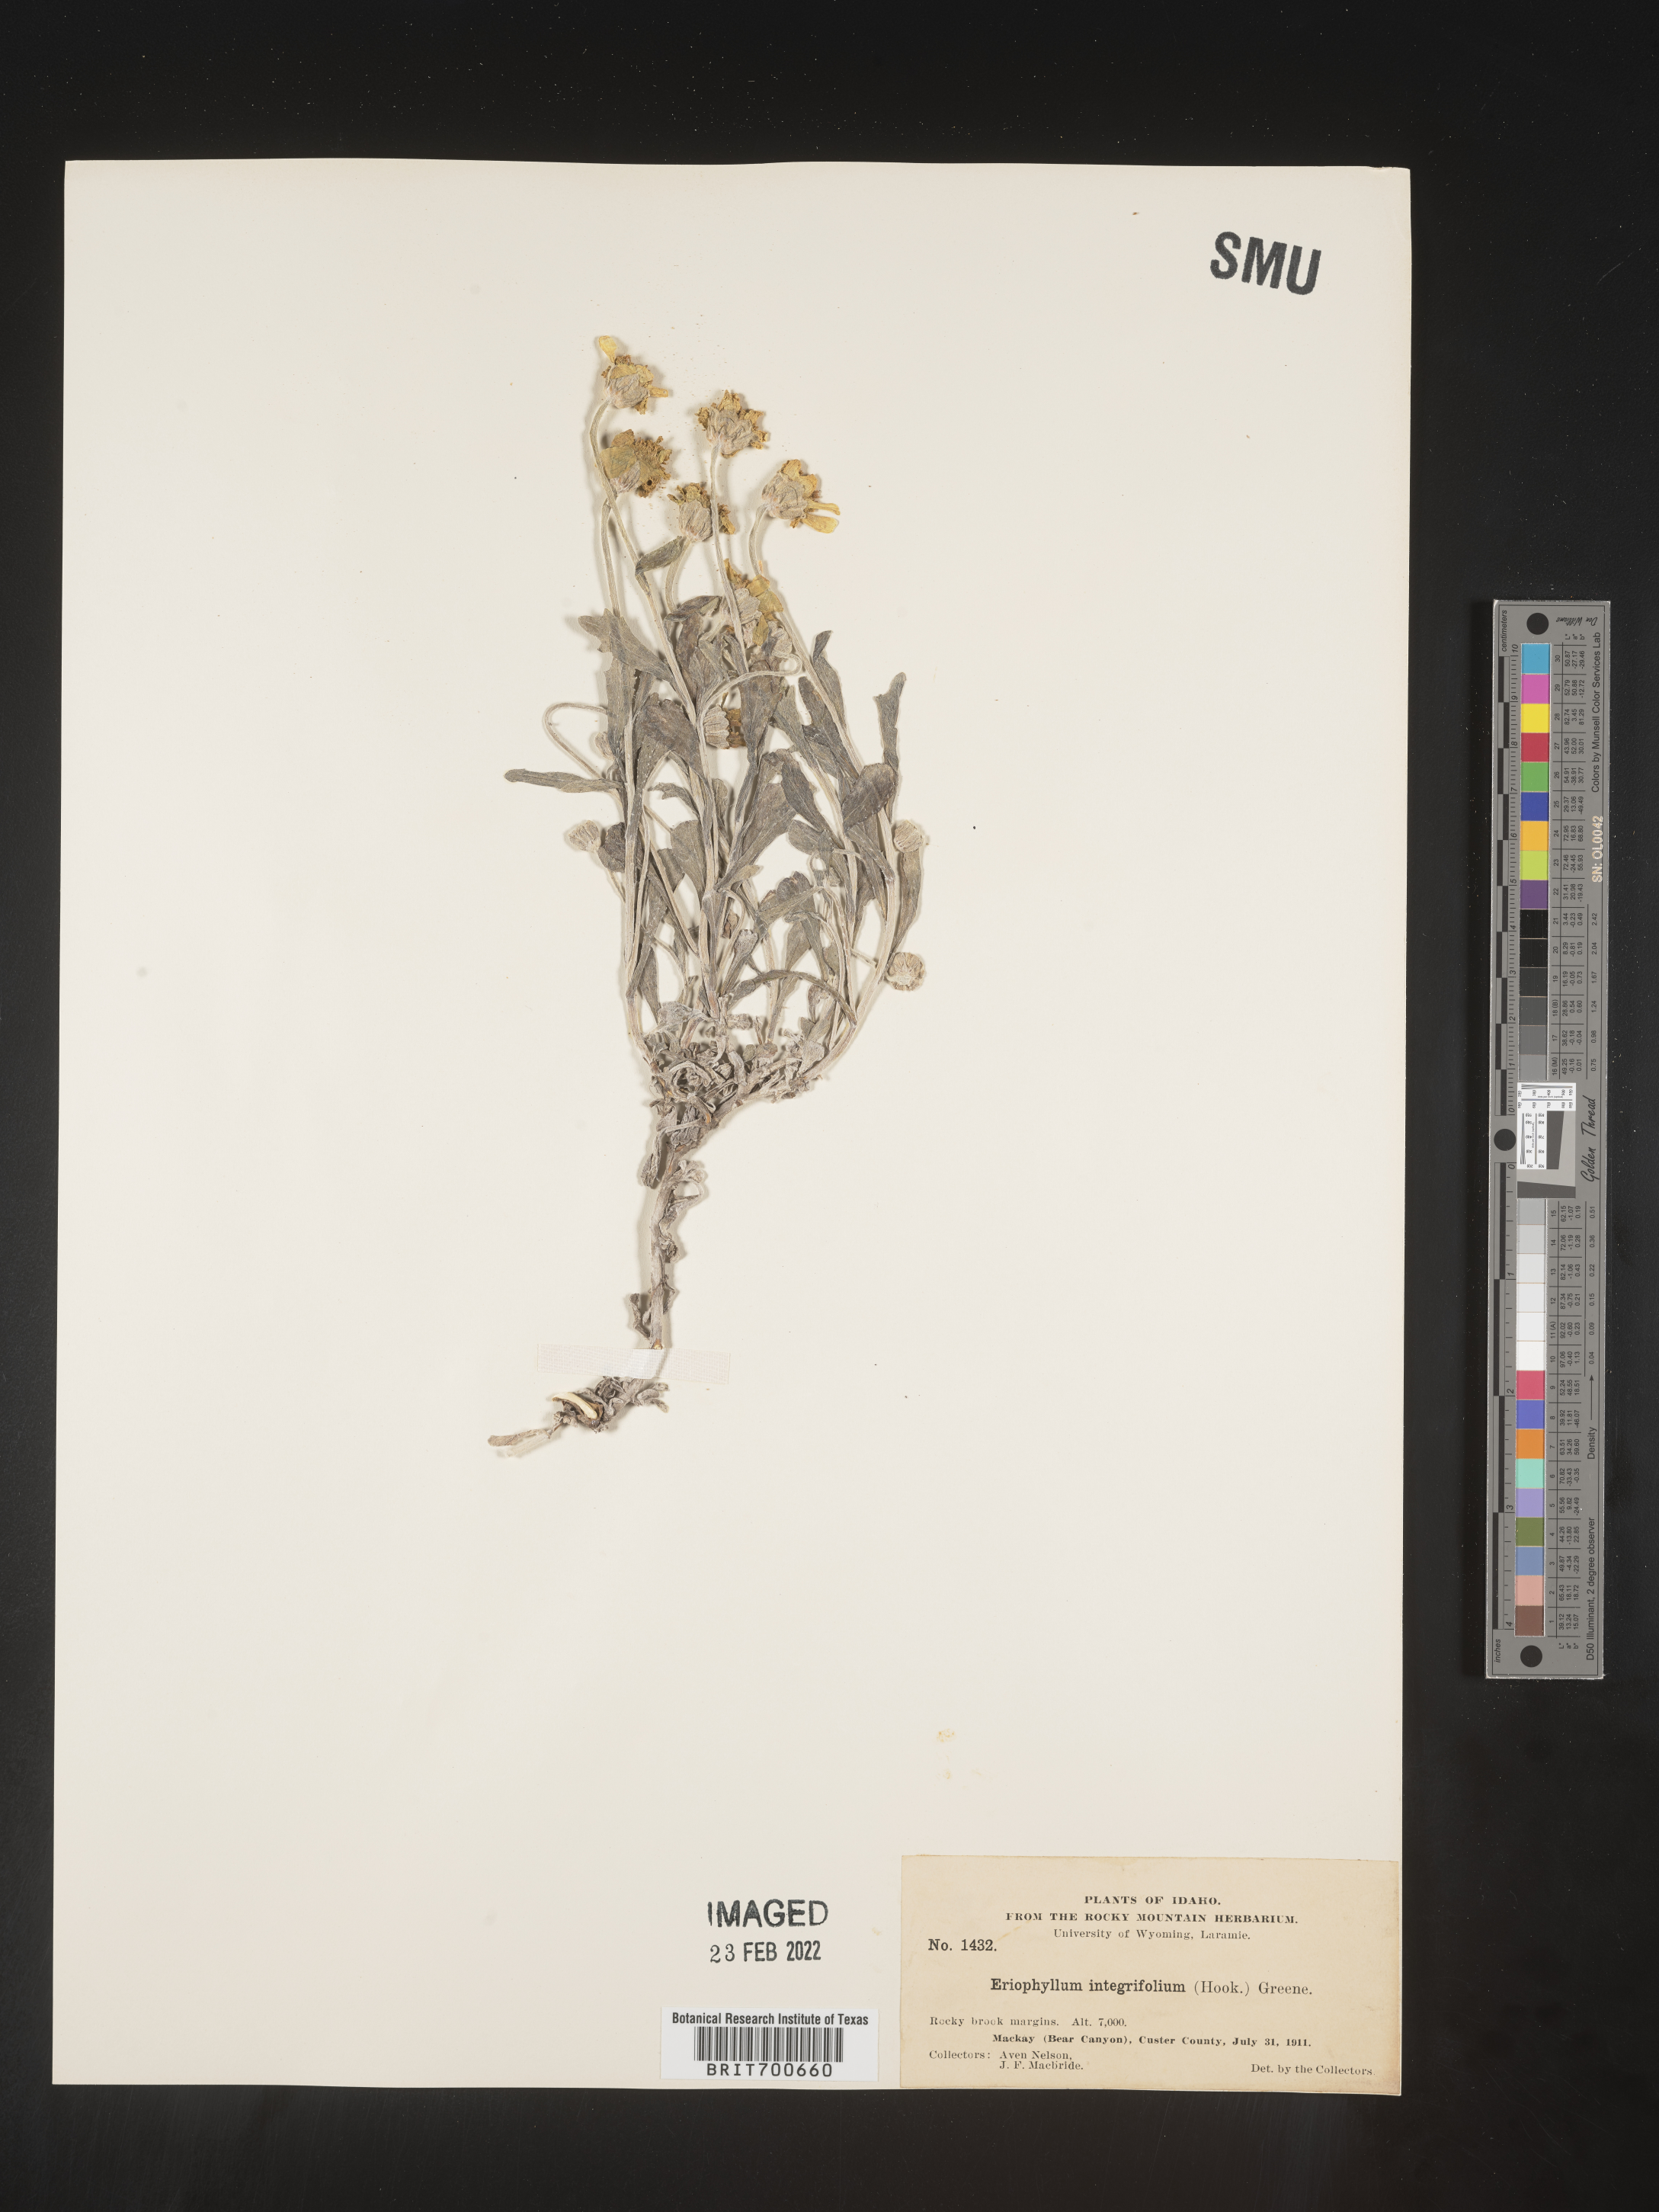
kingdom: Plantae
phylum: Tracheophyta
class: Magnoliopsida
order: Asterales
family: Asteraceae
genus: Eriophyllum
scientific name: Eriophyllum lanatum
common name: Common woolly-sunflower
